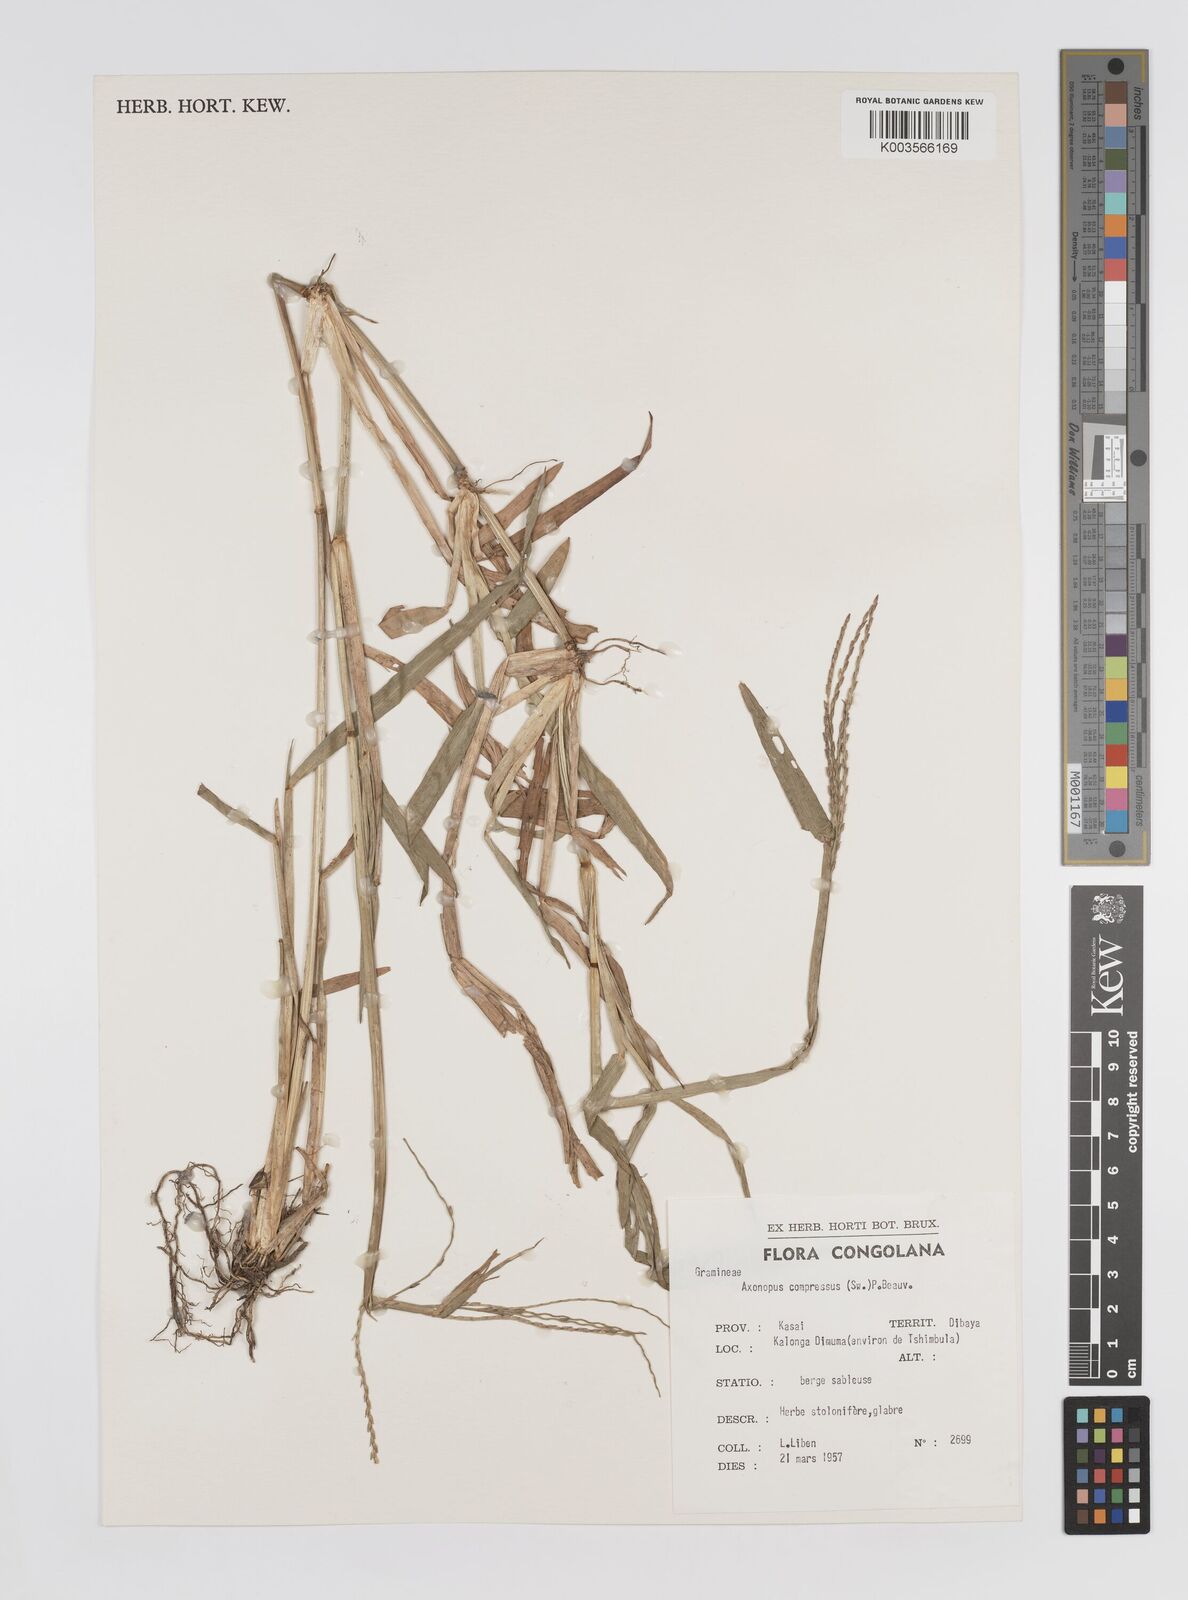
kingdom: Plantae
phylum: Tracheophyta
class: Liliopsida
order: Poales
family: Poaceae
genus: Axonopus
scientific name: Axonopus flexuosus
